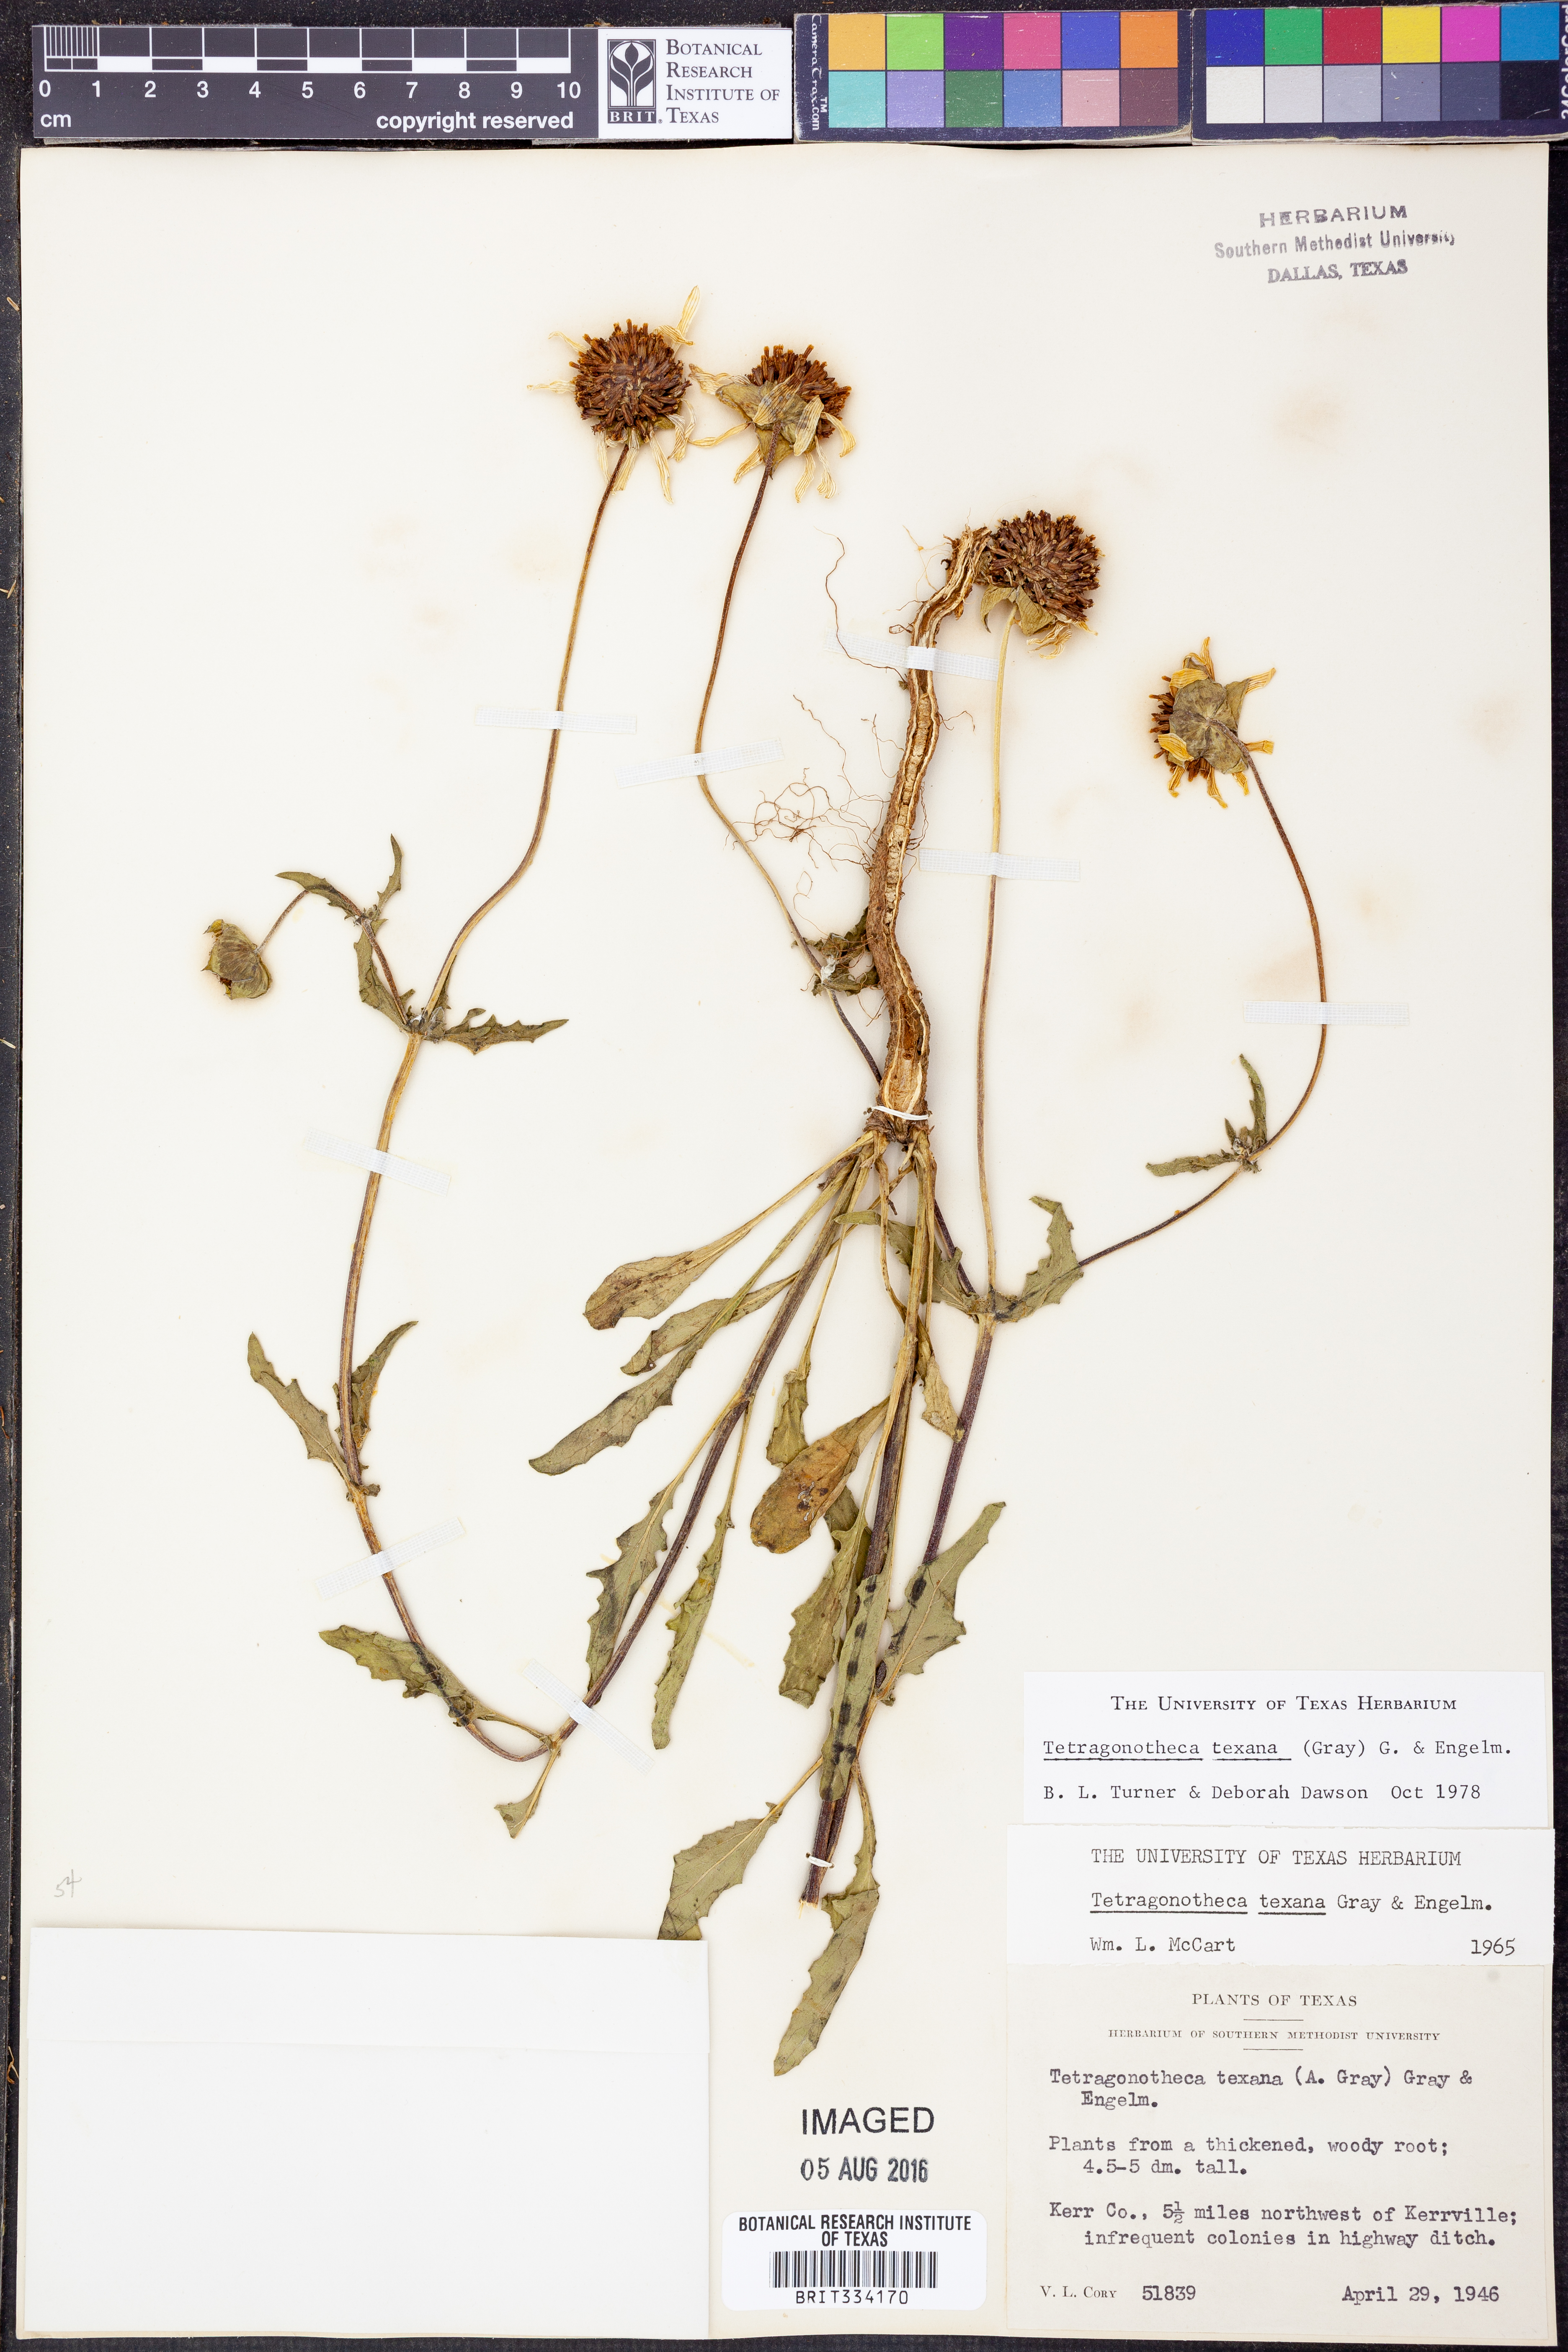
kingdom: Plantae
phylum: Tracheophyta
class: Magnoliopsida
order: Asterales
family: Asteraceae
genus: Tetragonotheca
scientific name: Tetragonotheca texana
